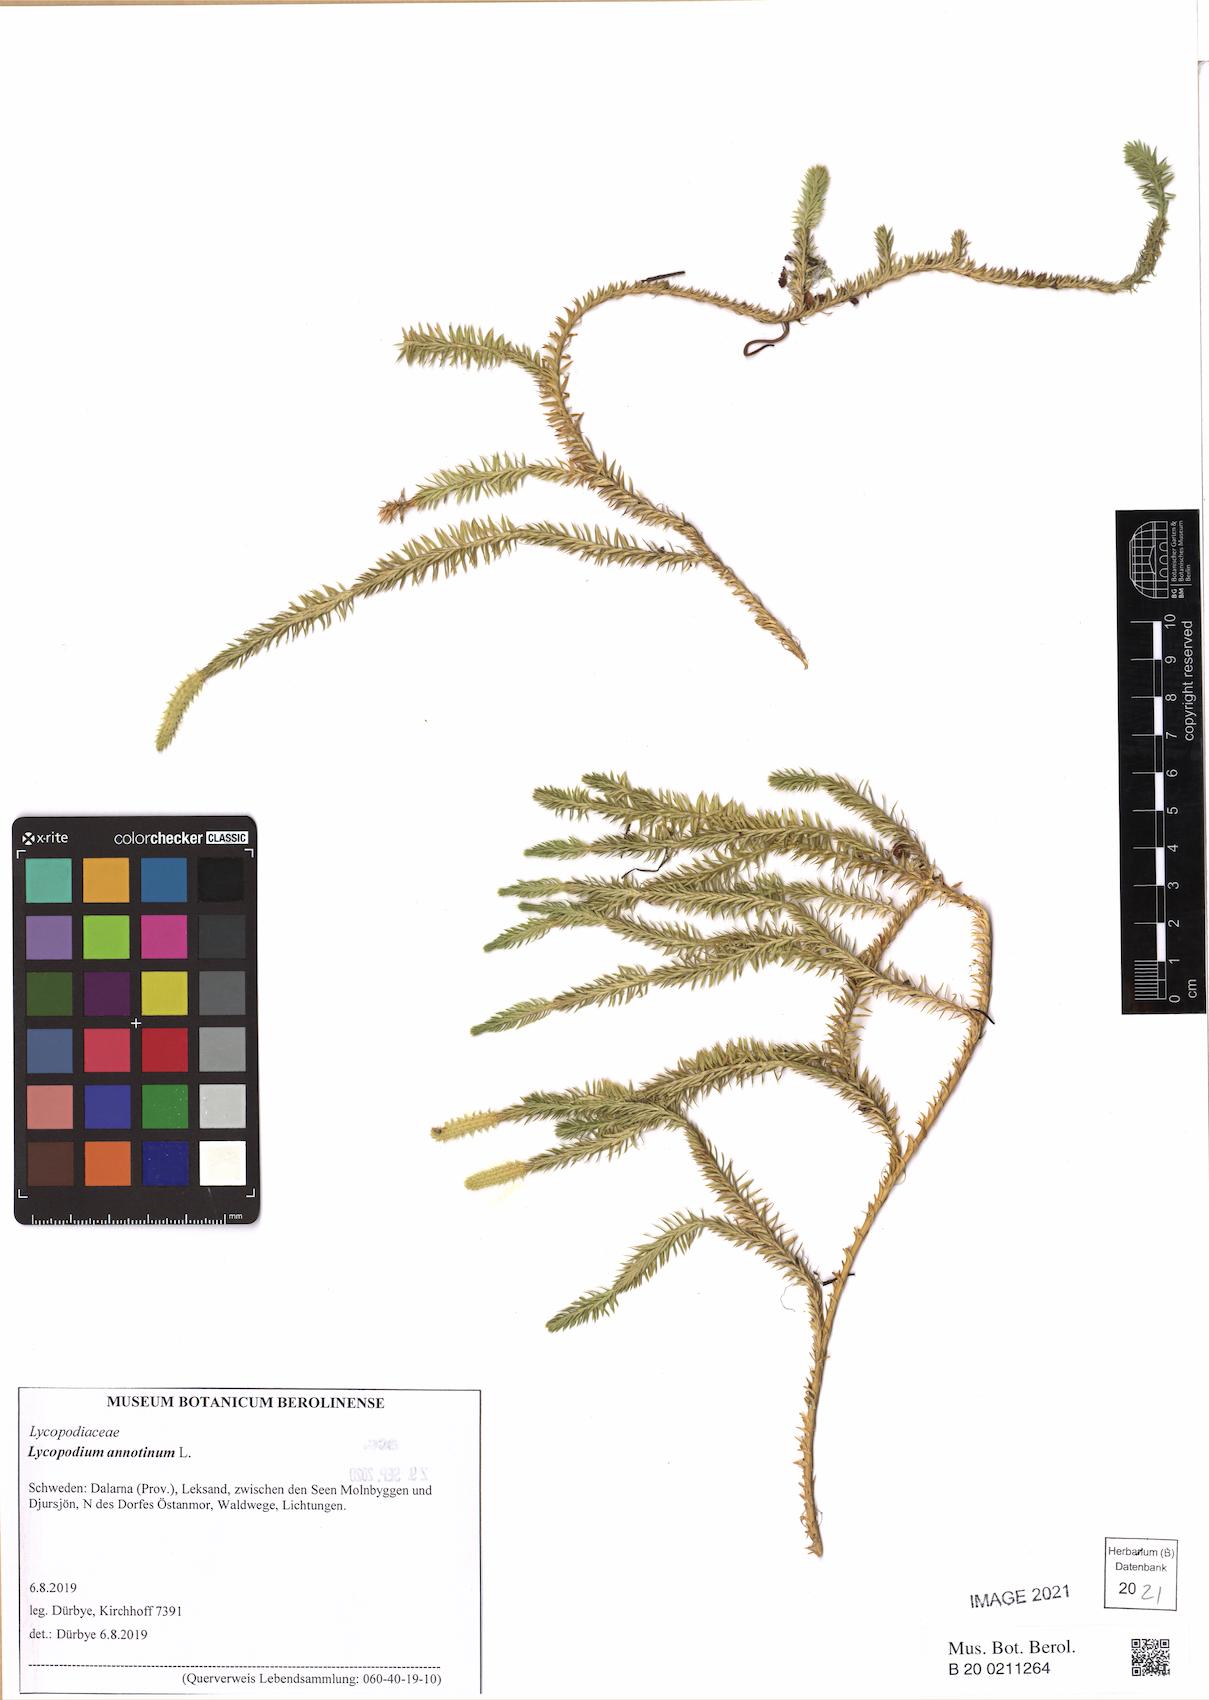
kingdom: Plantae
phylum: Tracheophyta
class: Lycopodiopsida
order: Lycopodiales
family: Lycopodiaceae
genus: Spinulum
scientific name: Spinulum annotinum
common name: Interrupted club-moss
